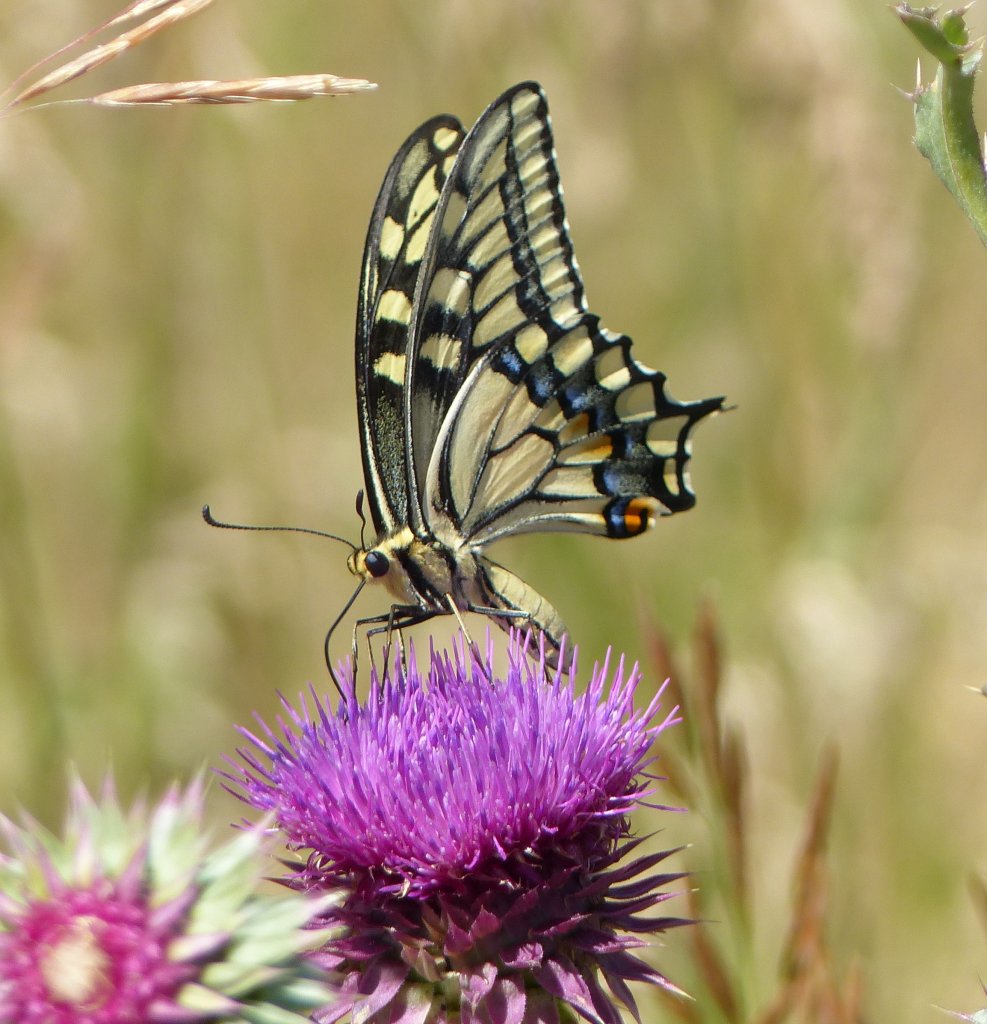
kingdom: Animalia
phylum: Arthropoda
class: Insecta
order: Lepidoptera
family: Papilionidae
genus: Papilio
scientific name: Papilio machaon
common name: Old World Swallowtail
